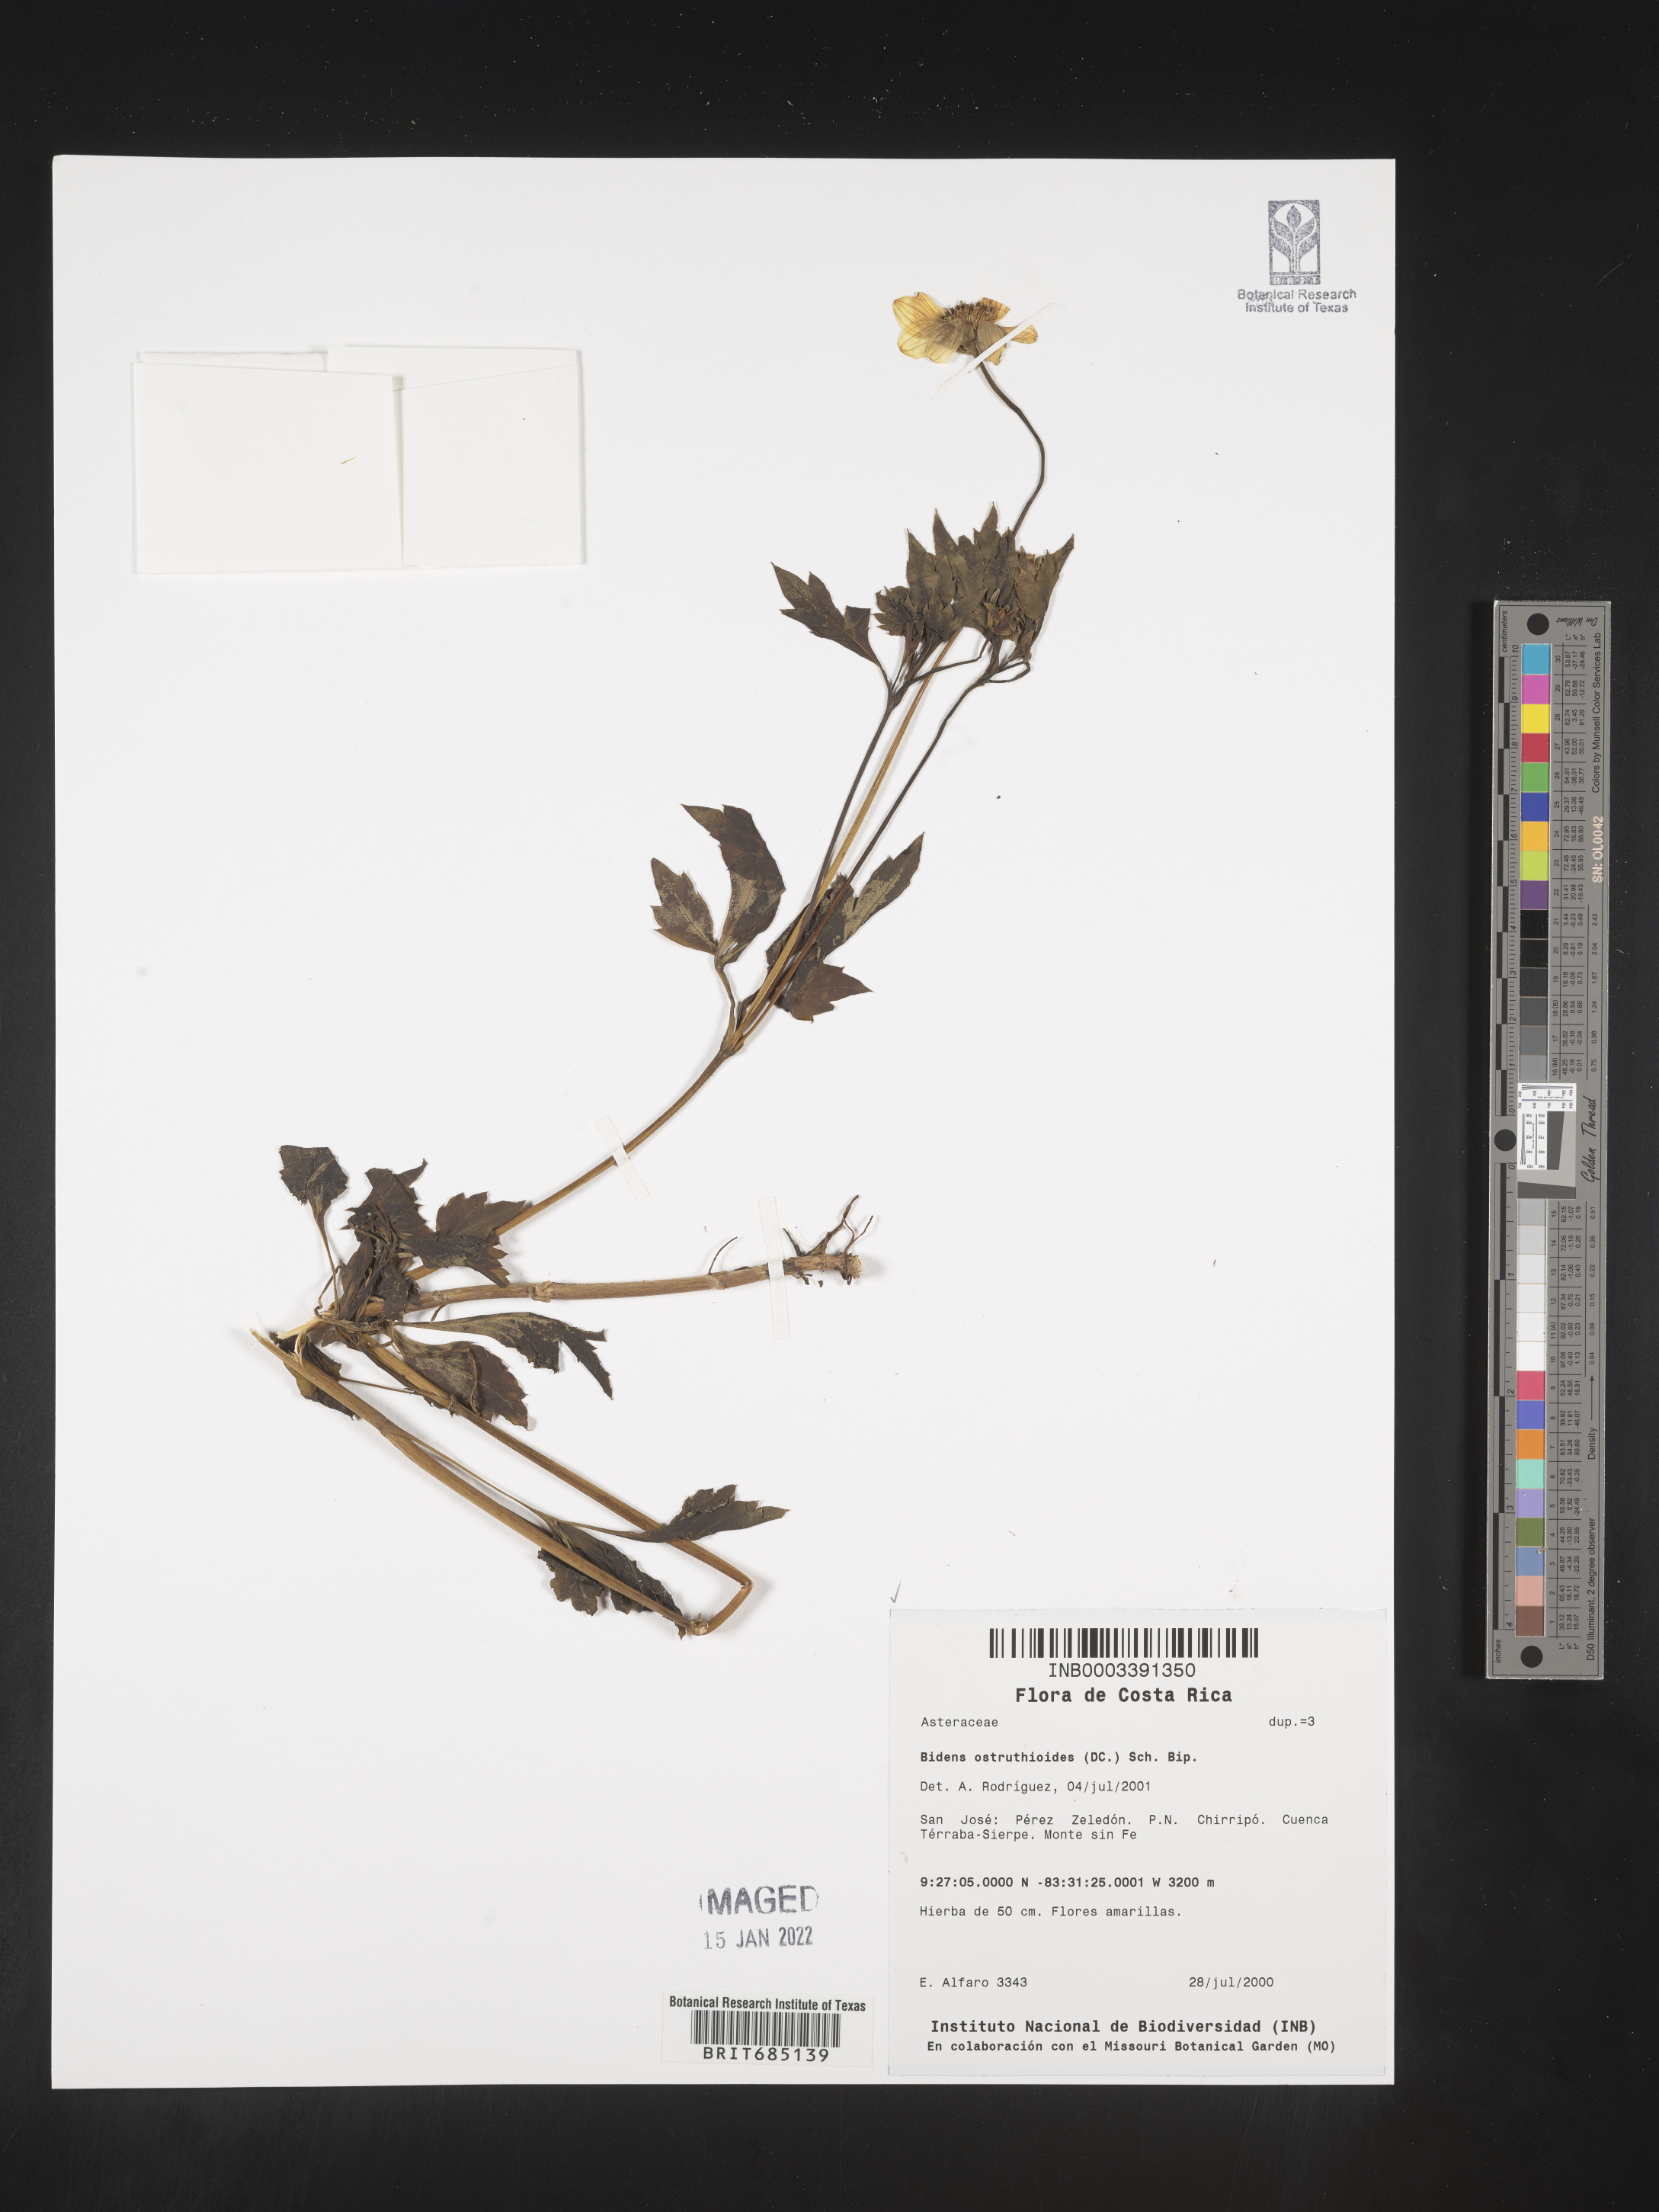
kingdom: Plantae
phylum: Tracheophyta
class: Magnoliopsida
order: Asterales
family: Asteraceae
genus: Bidens
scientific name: Bidens
